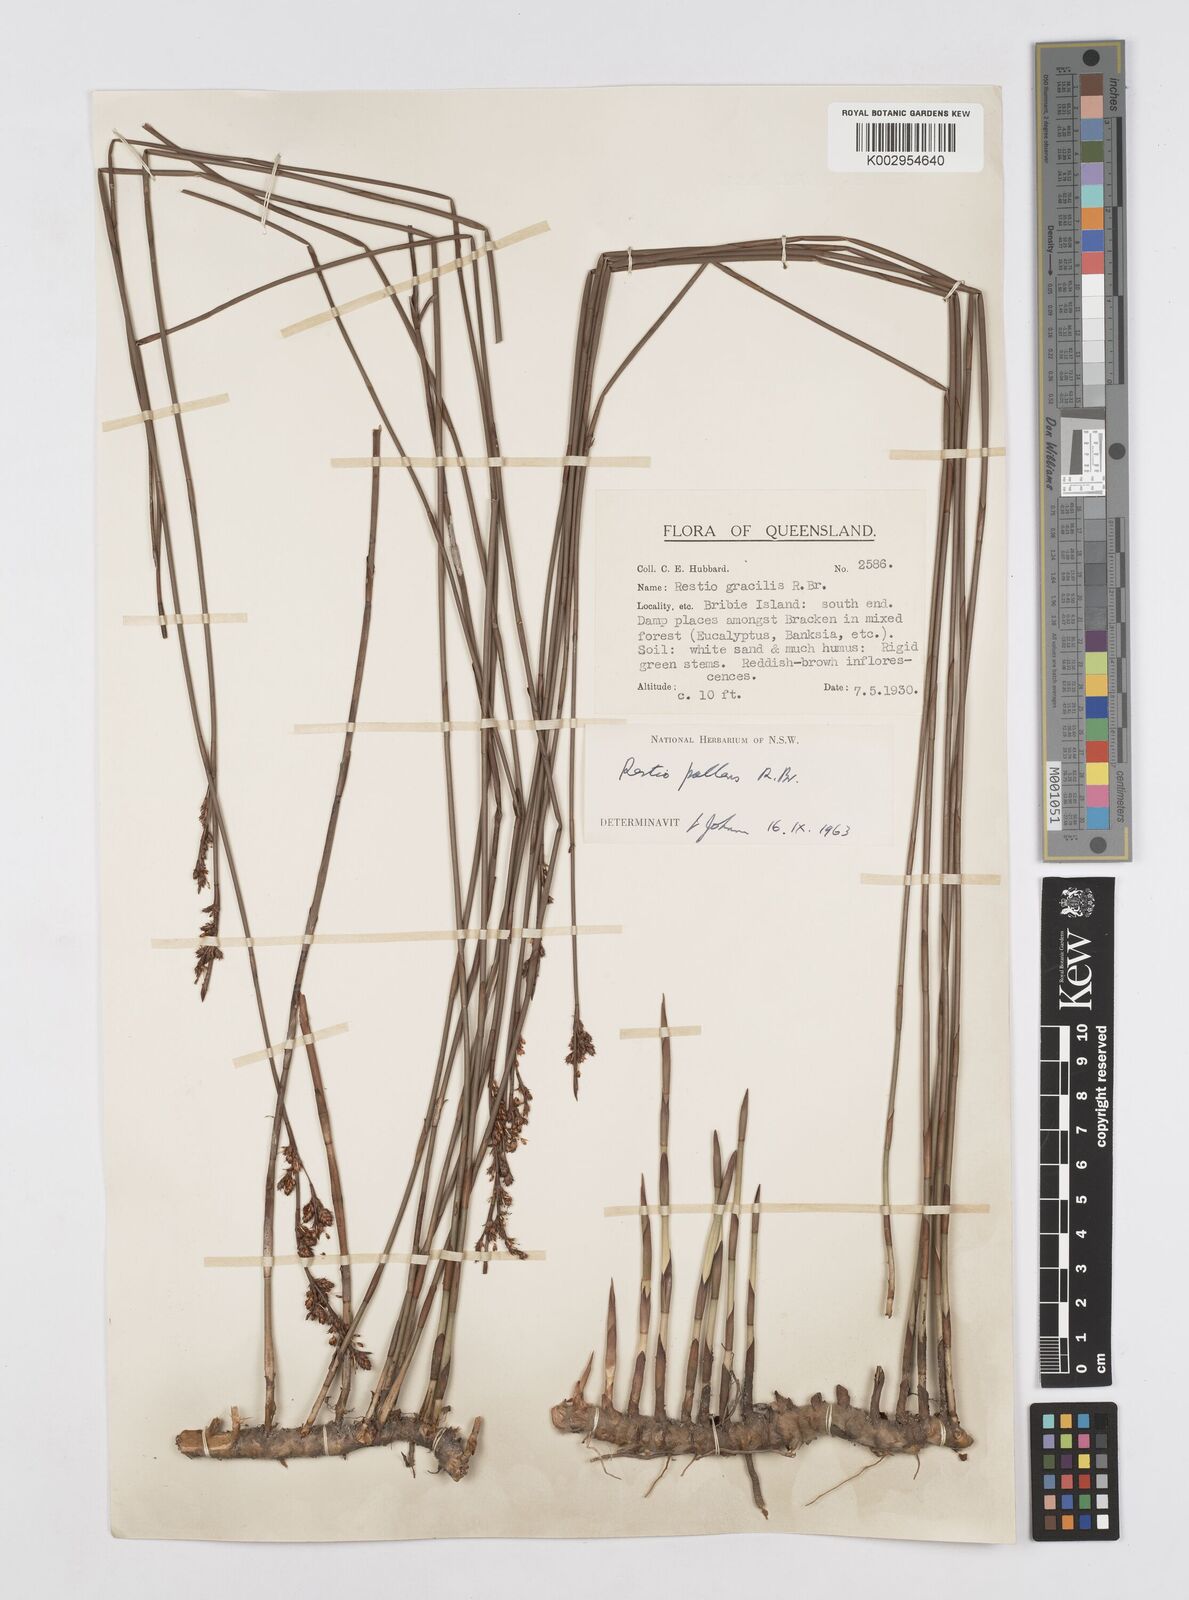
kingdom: Plantae
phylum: Tracheophyta
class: Liliopsida
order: Poales
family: Restionaceae
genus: Baloskion
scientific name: Baloskion pallens
